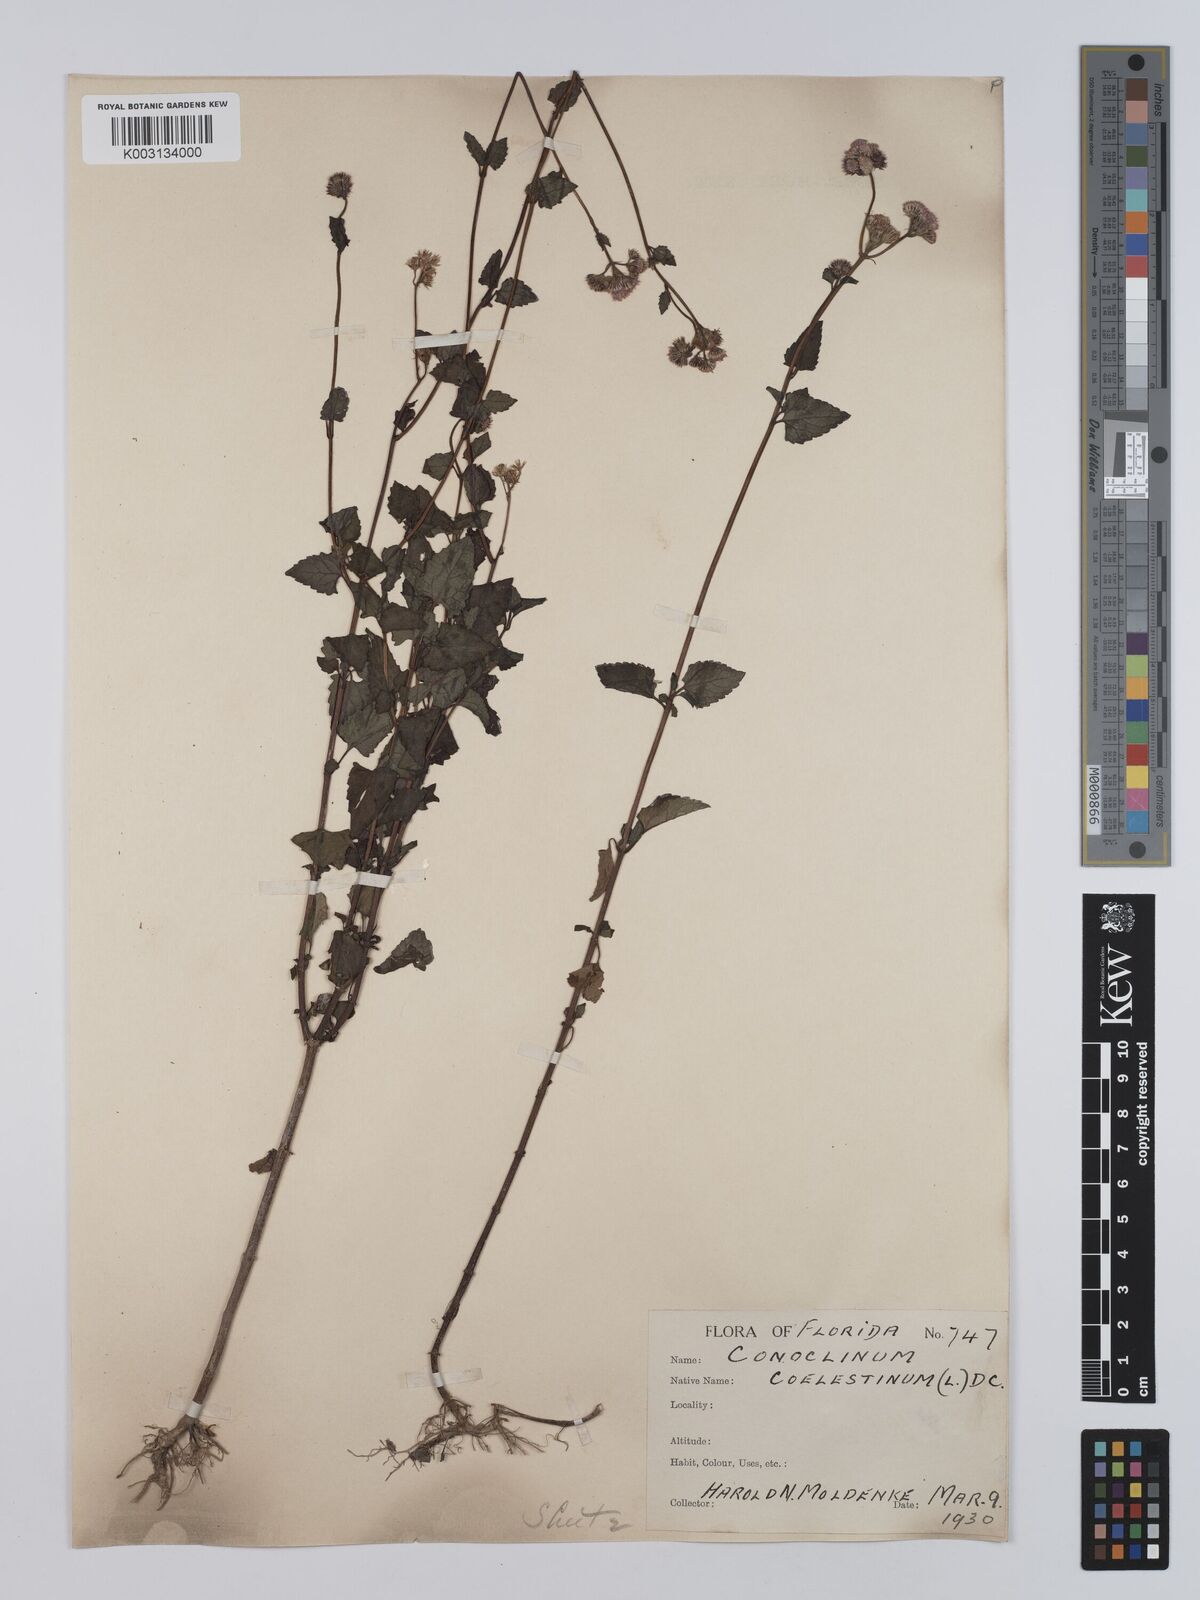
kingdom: Plantae
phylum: Tracheophyta
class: Magnoliopsida
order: Asterales
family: Asteraceae
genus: Conoclinium
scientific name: Conoclinium coelestinum
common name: Blue mistflower
